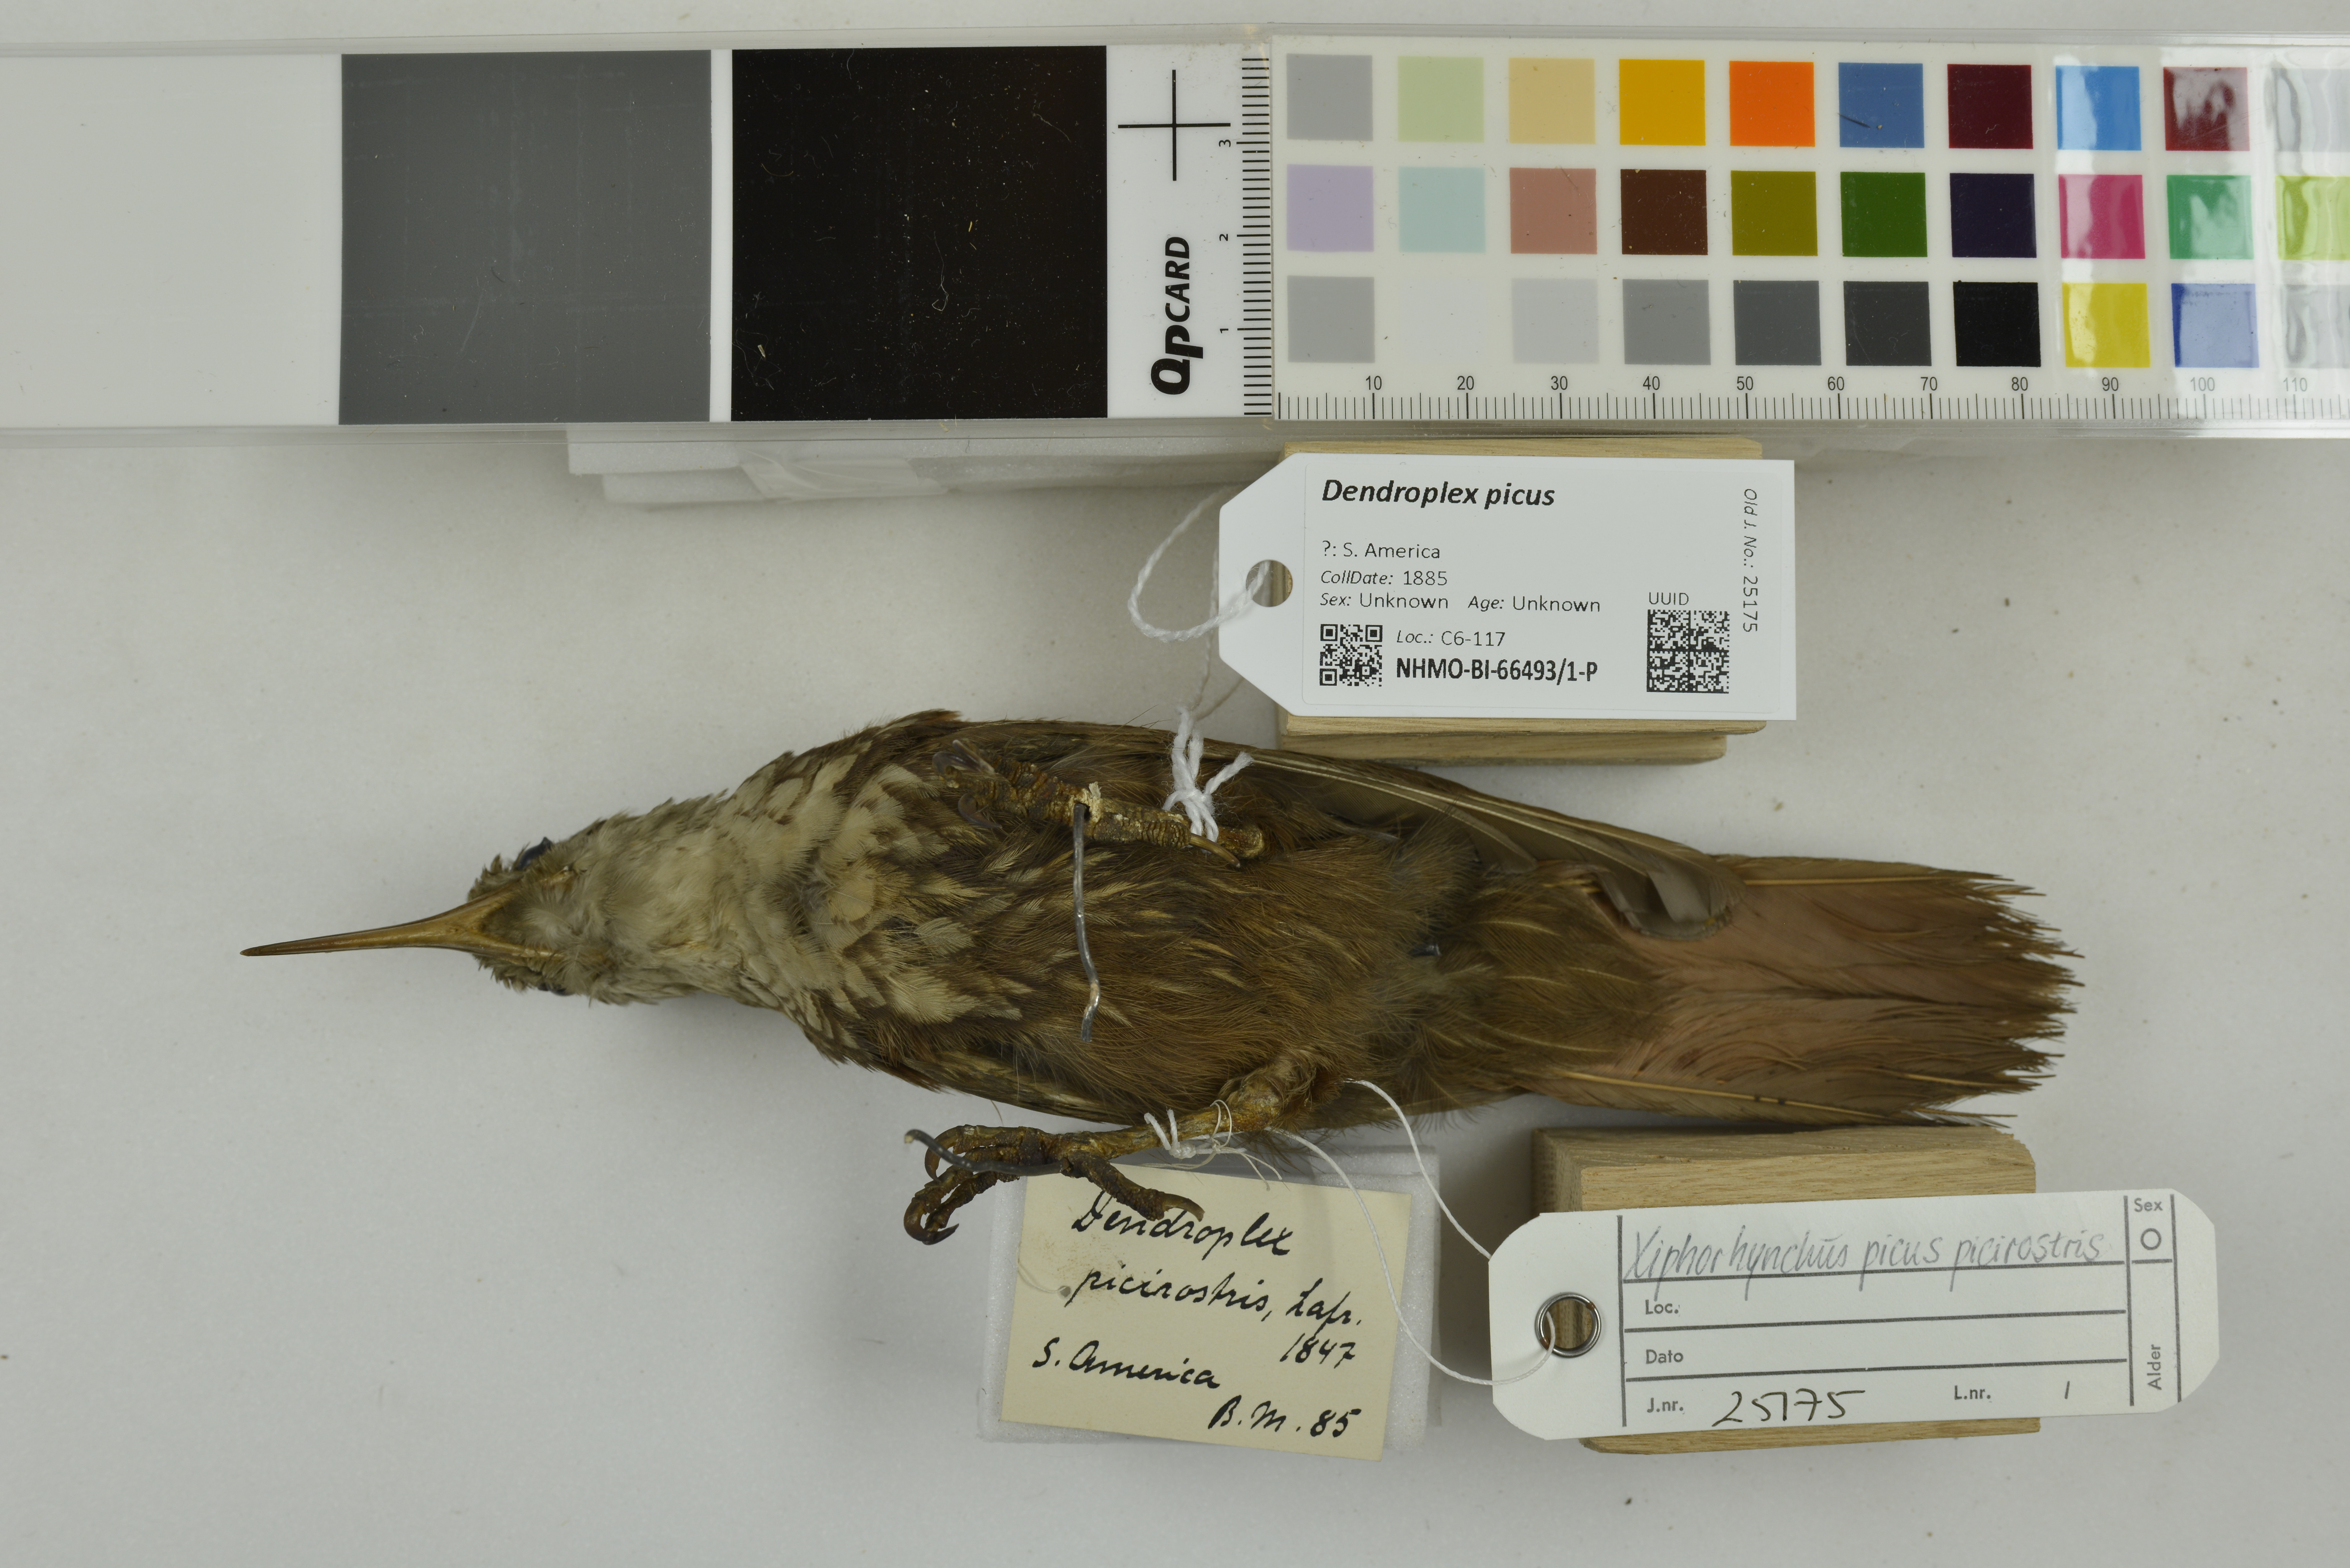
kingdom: Animalia
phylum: Chordata
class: Aves
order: Passeriformes
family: Furnariidae
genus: Xiphorhynchus
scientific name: Xiphorhynchus picus
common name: Straight-billed woodcreeper
